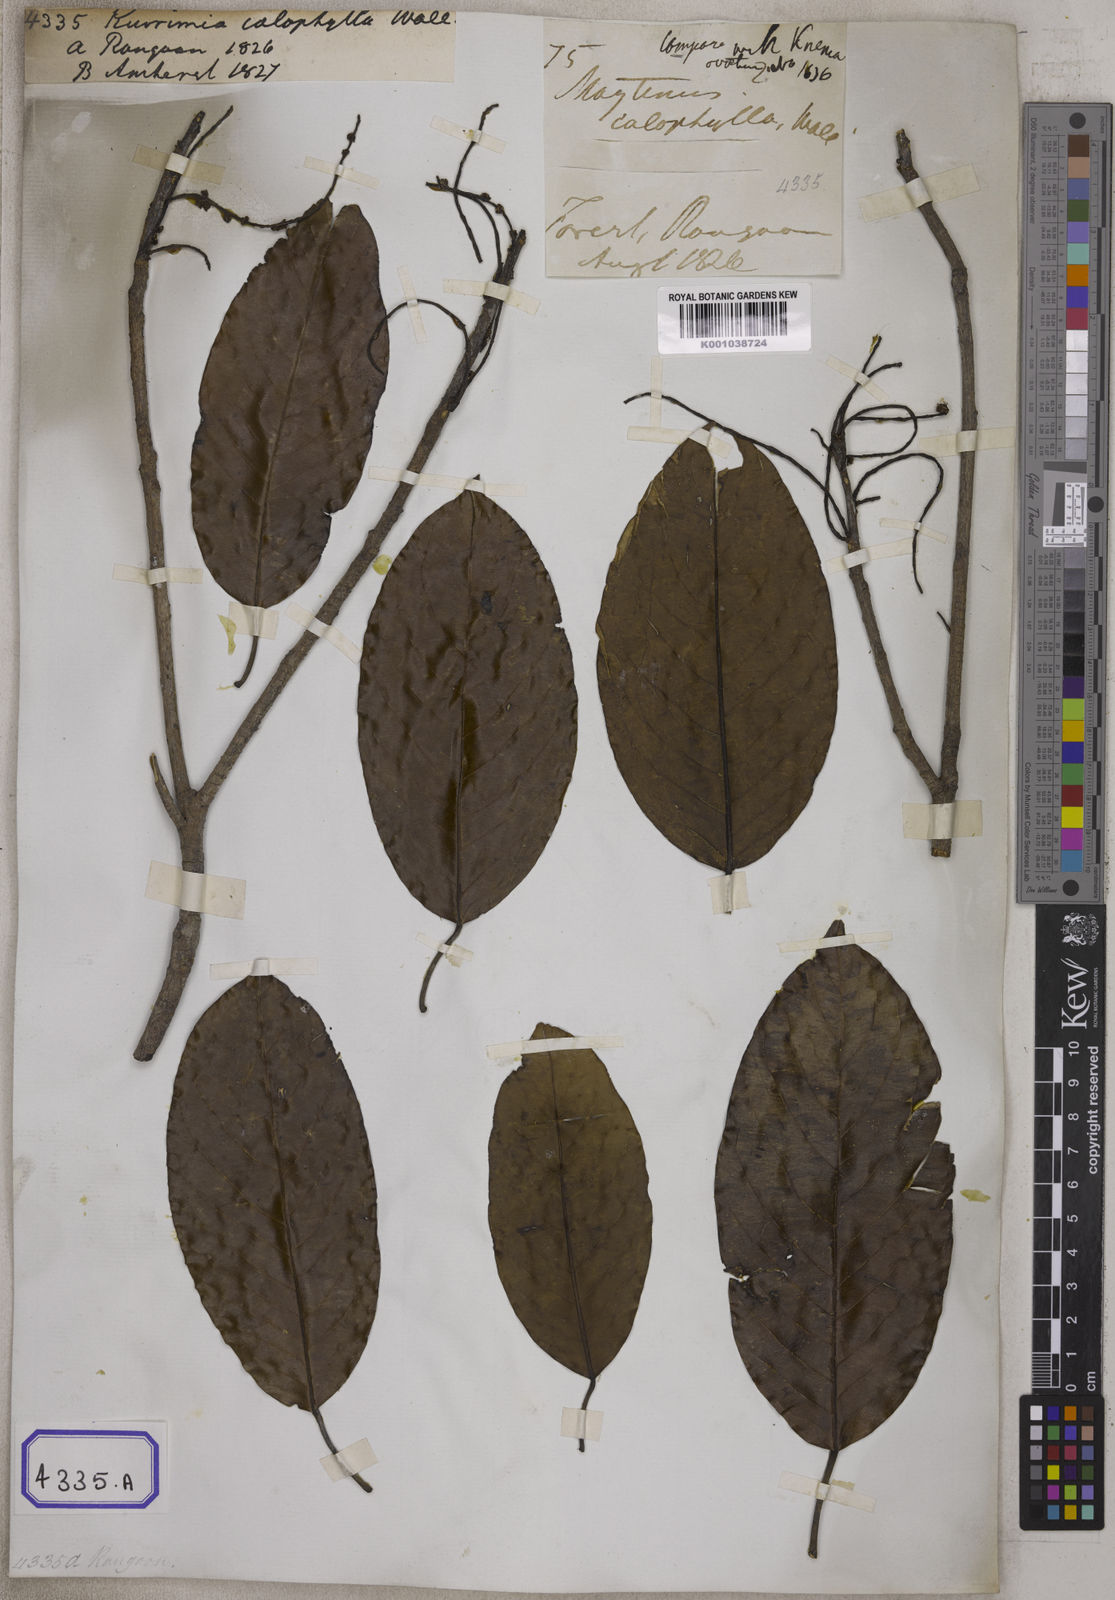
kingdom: Plantae
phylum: Tracheophyta
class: Magnoliopsida
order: Malpighiales
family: Centroplacaceae
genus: Bhesa
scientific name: Bhesa robusta
